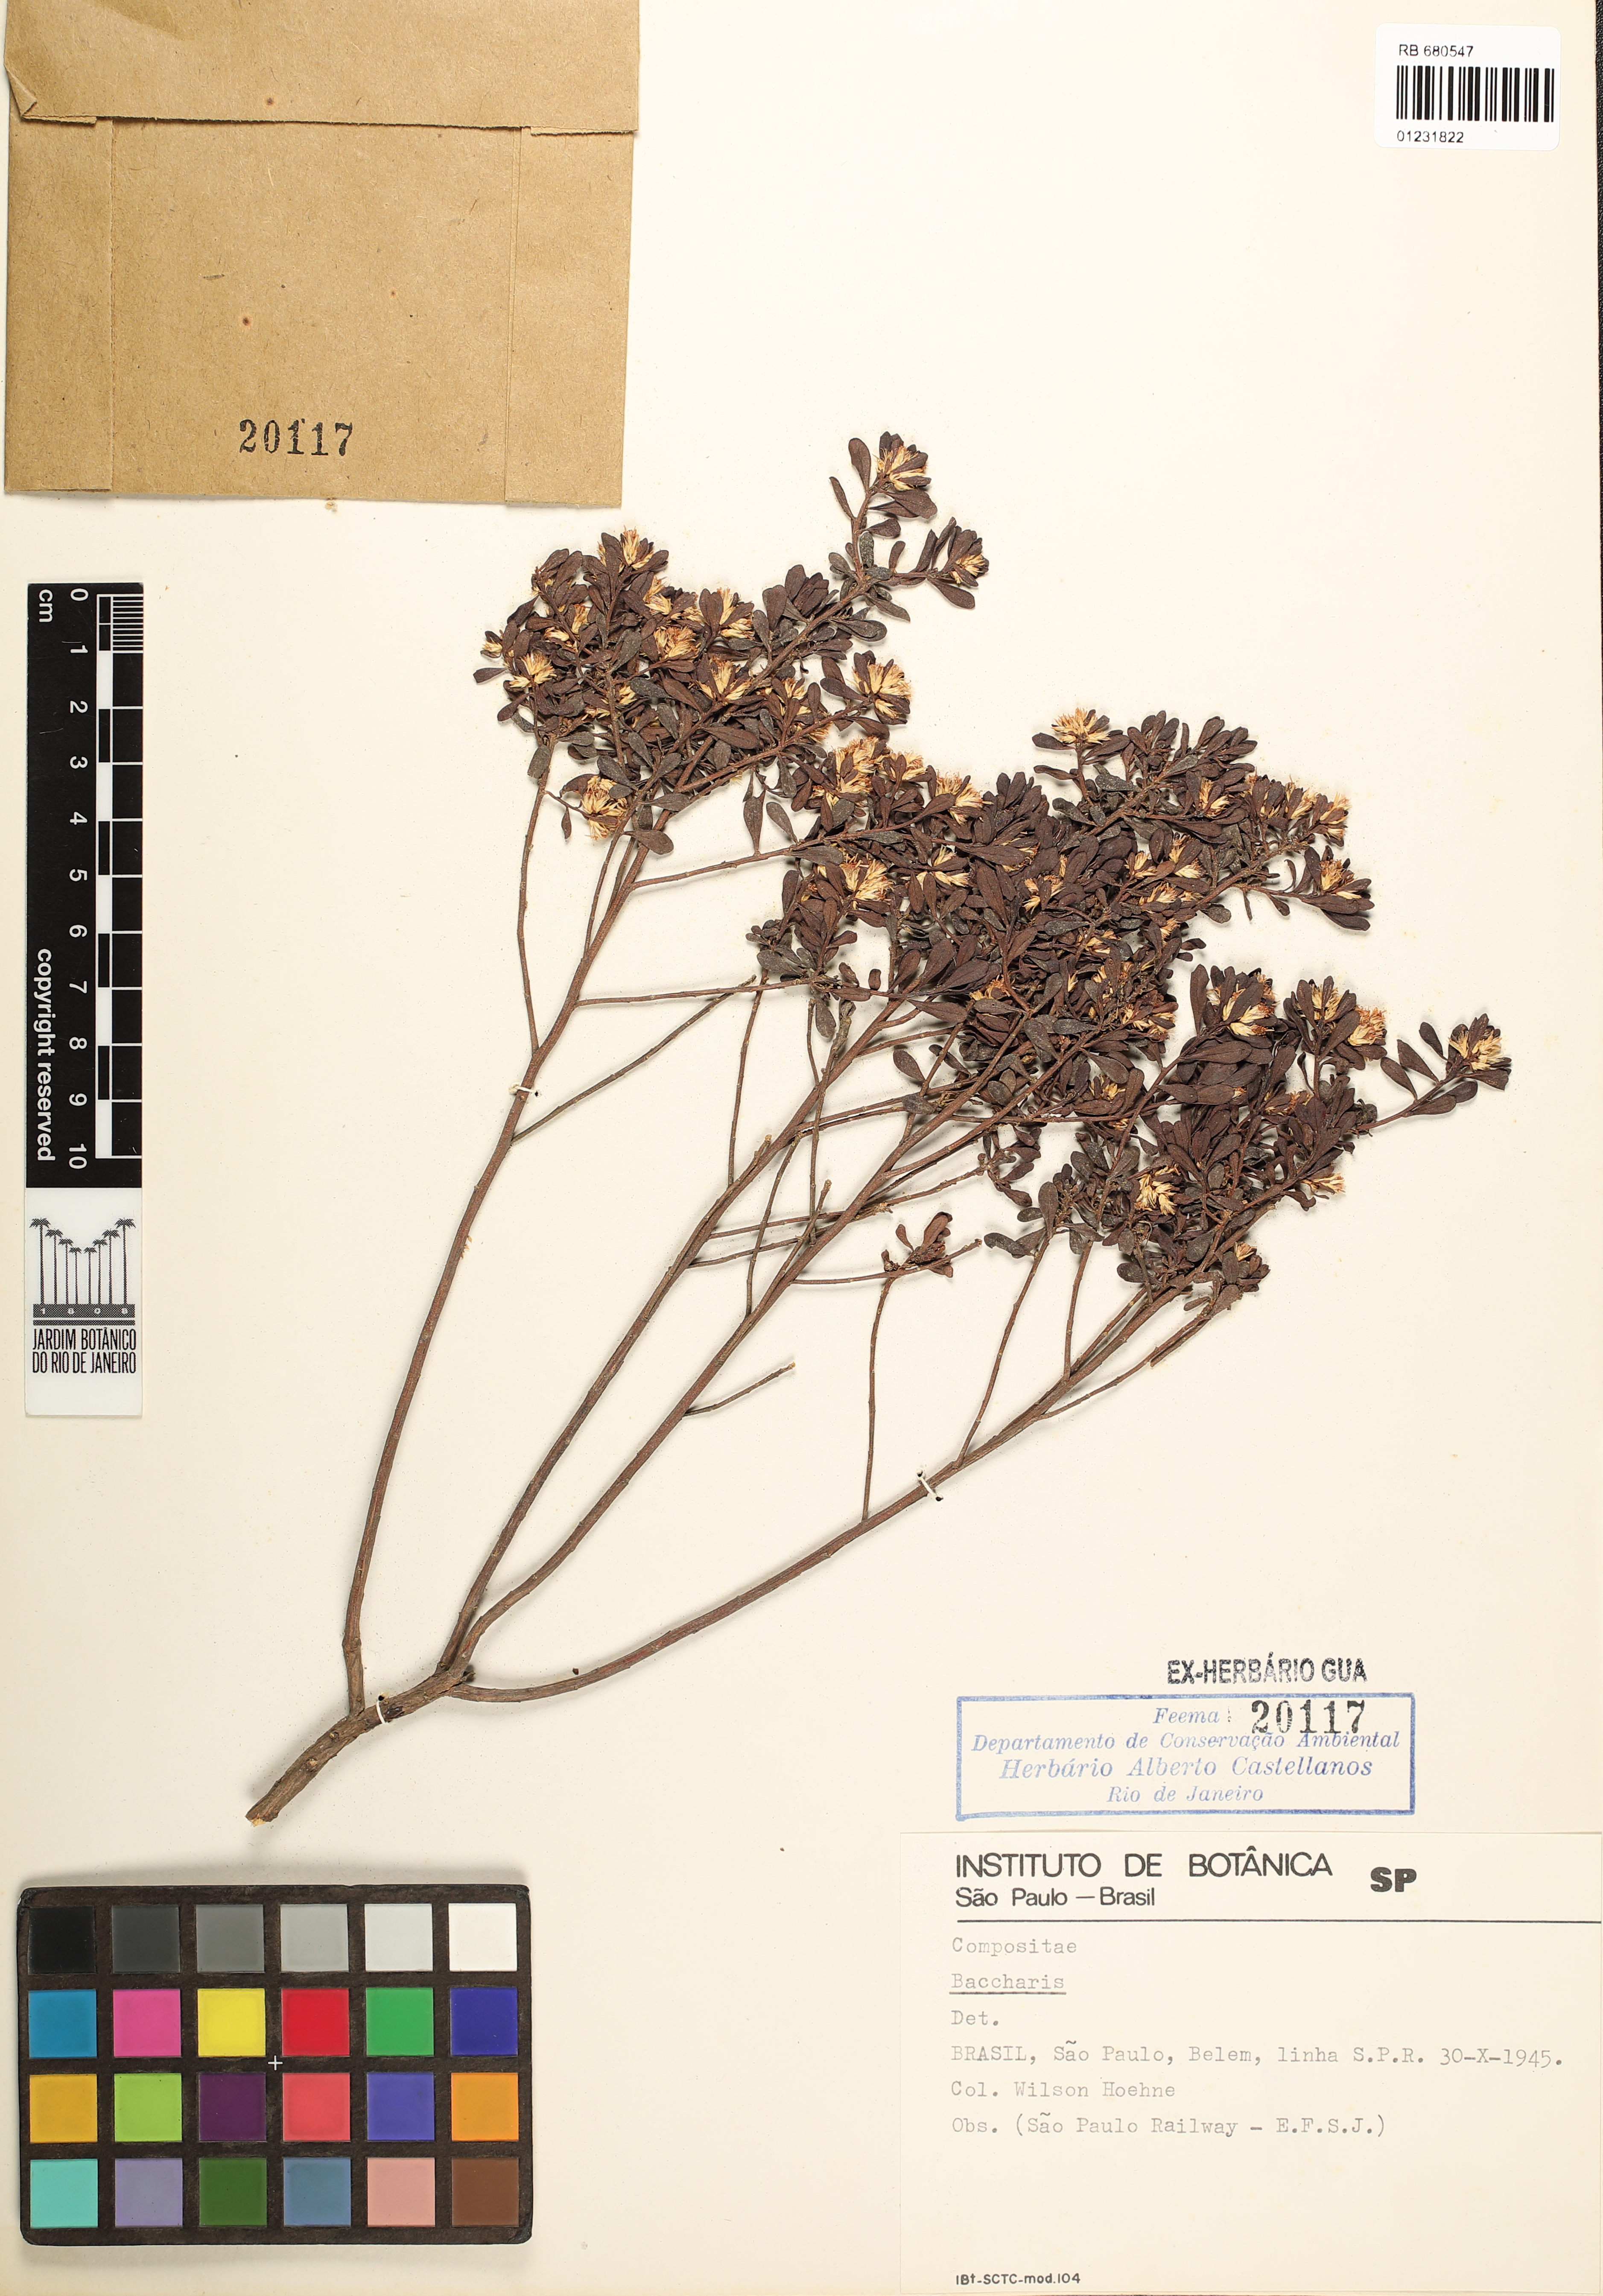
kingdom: Plantae
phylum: Tracheophyta
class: Magnoliopsida
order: Asterales
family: Asteraceae
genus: Baccharis
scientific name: Baccharis
